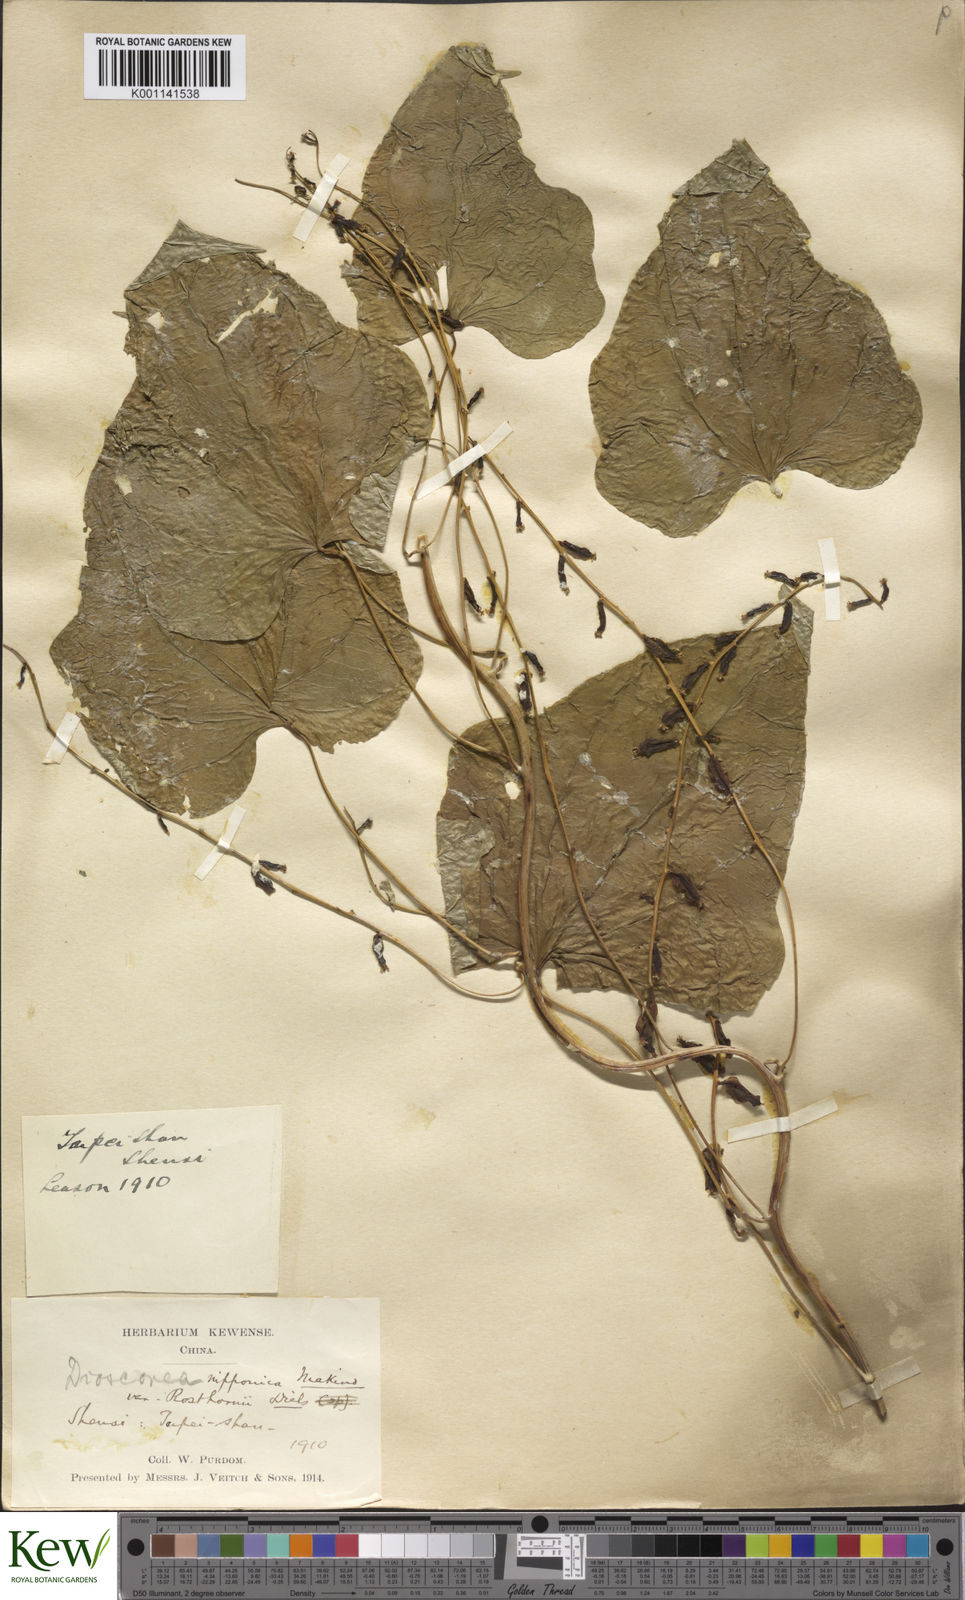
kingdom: Plantae
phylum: Tracheophyta
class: Liliopsida
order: Dioscoreales
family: Dioscoreaceae
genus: Dioscorea
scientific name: Dioscorea nipponica
